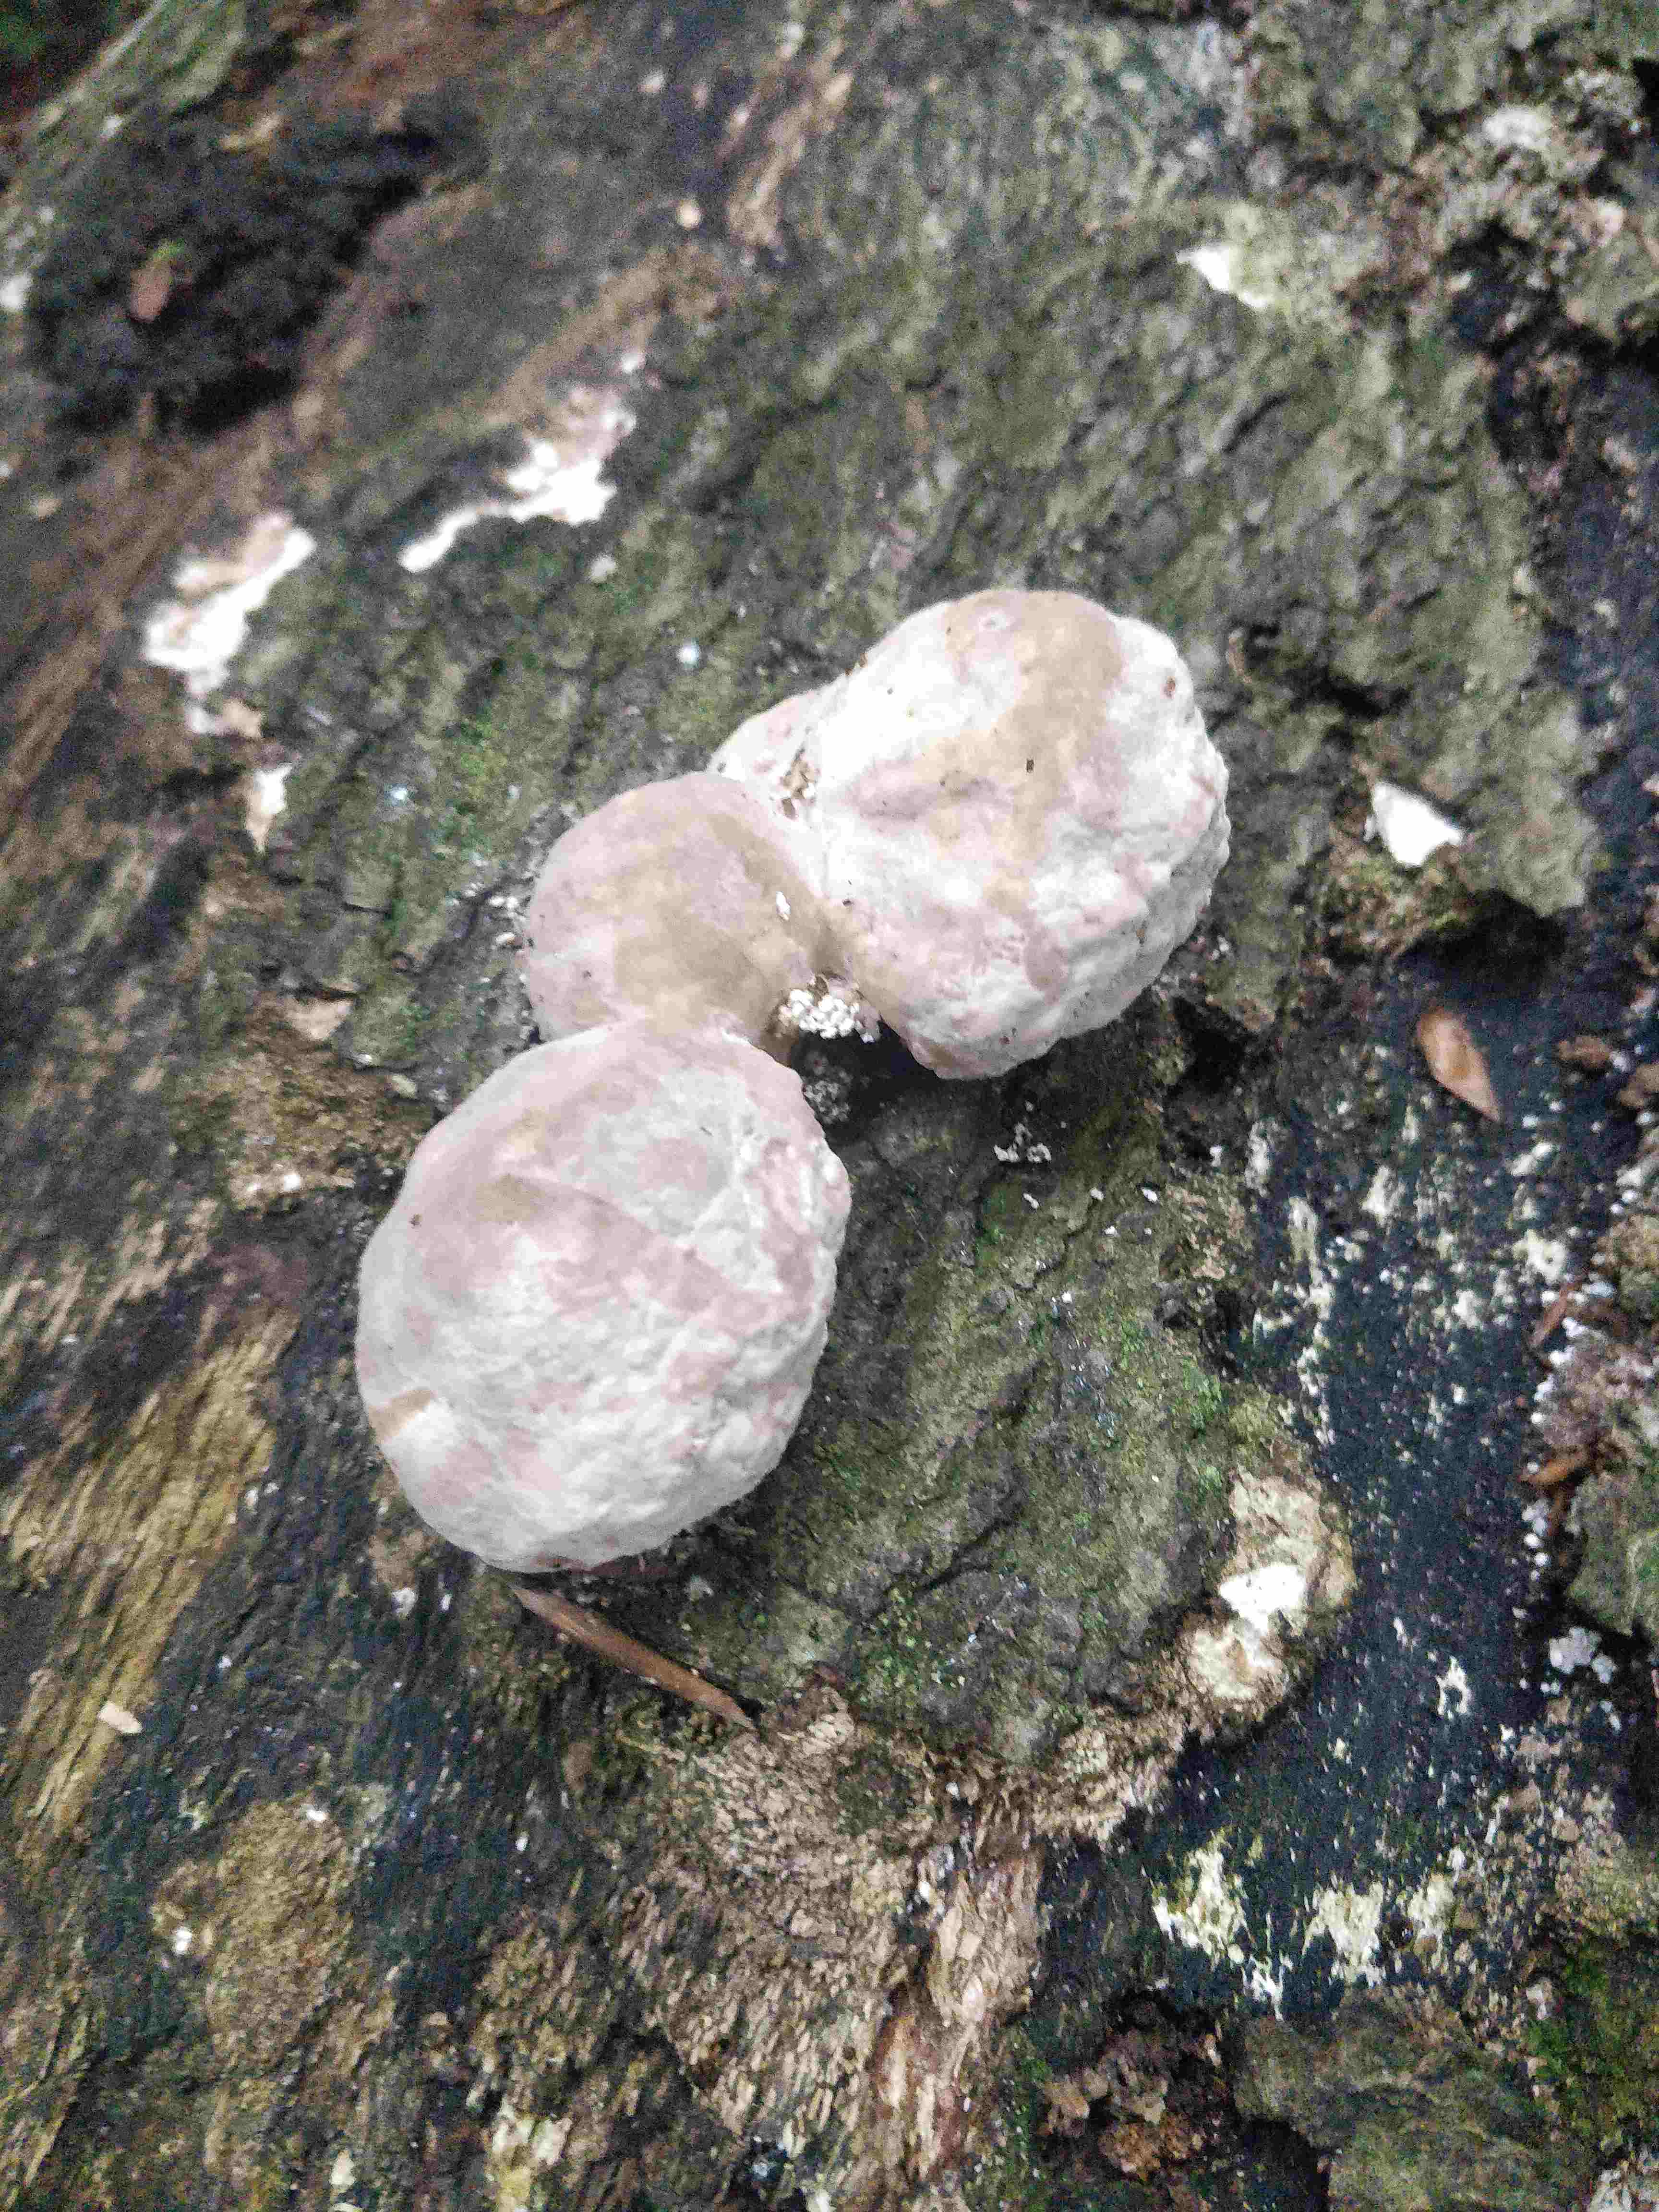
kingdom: Fungi
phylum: Basidiomycota
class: Agaricomycetes
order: Polyporales
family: Polyporaceae
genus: Trametes
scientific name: Trametes gibbosa
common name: puklet læderporesvamp
